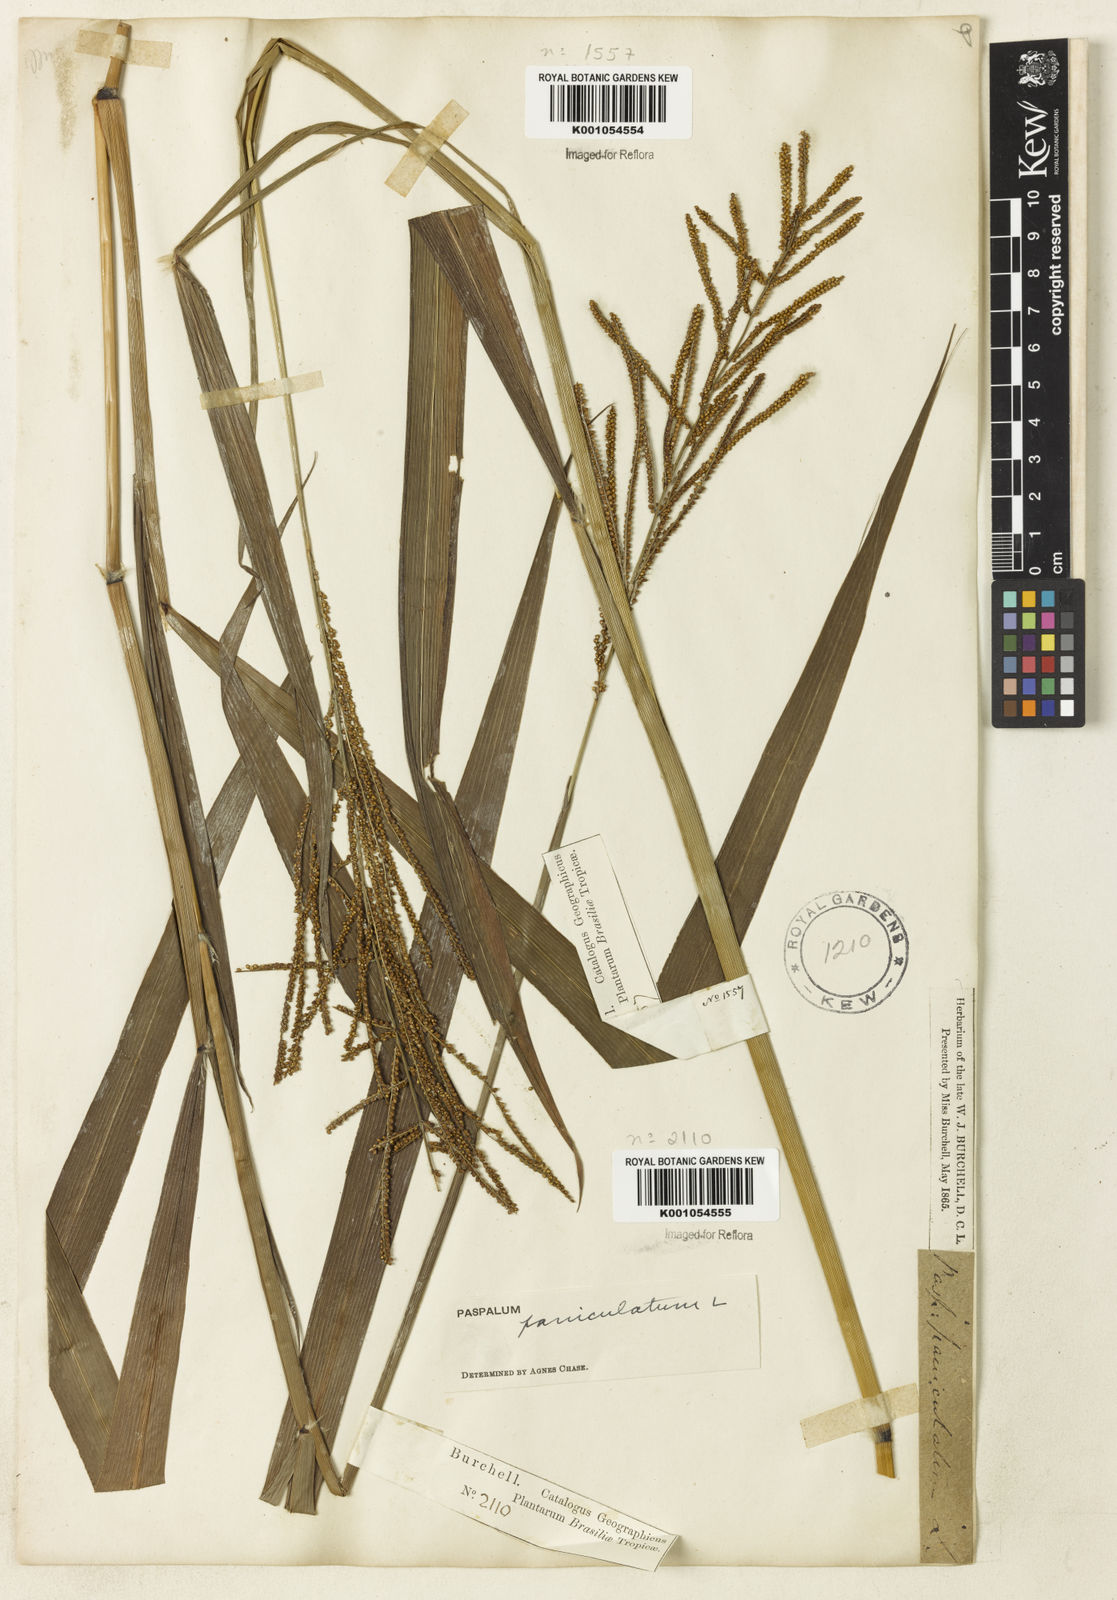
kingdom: Plantae
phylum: Tracheophyta
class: Liliopsida
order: Poales
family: Poaceae
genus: Paspalum
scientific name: Paspalum paniculatum
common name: Arrocillo
